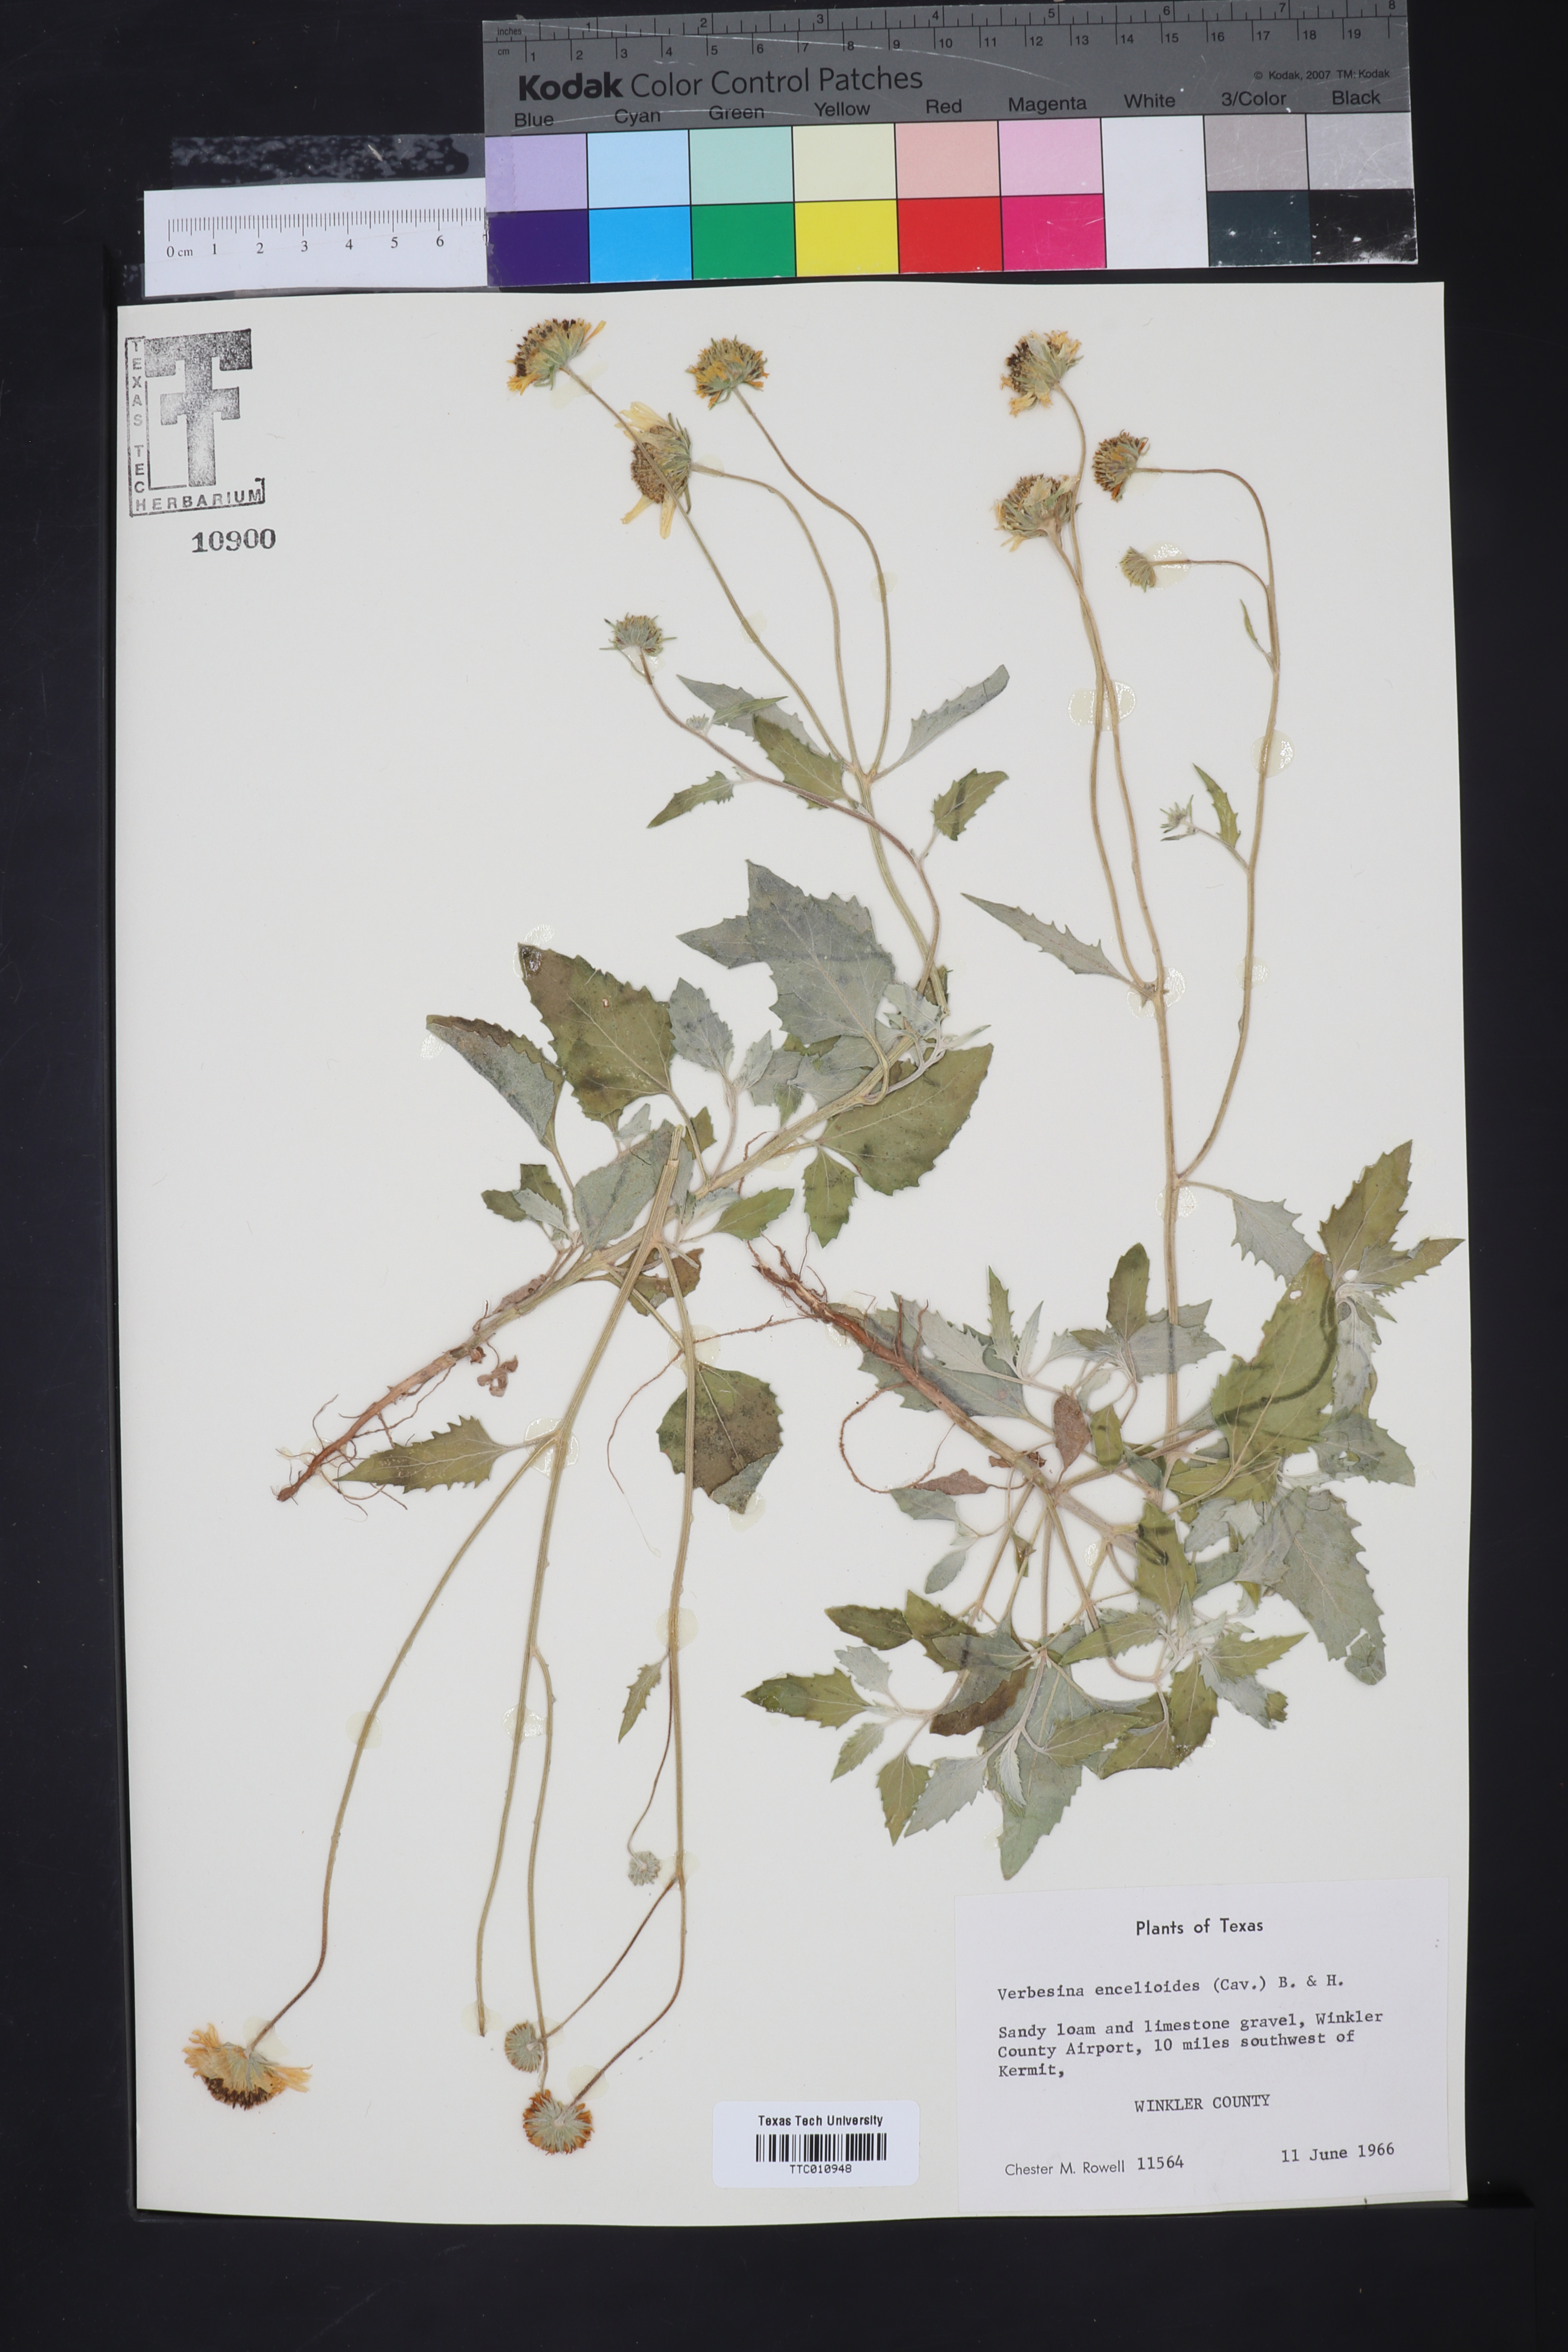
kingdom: Plantae
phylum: Tracheophyta
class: Magnoliopsida
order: Asterales
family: Asteraceae
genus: Verbesina
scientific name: Verbesina encelioides
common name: Golden crownbeard
